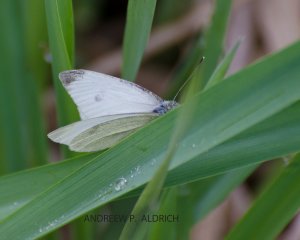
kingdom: Animalia
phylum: Arthropoda
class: Insecta
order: Lepidoptera
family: Pieridae
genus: Pieris
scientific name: Pieris rapae
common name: Cabbage White
